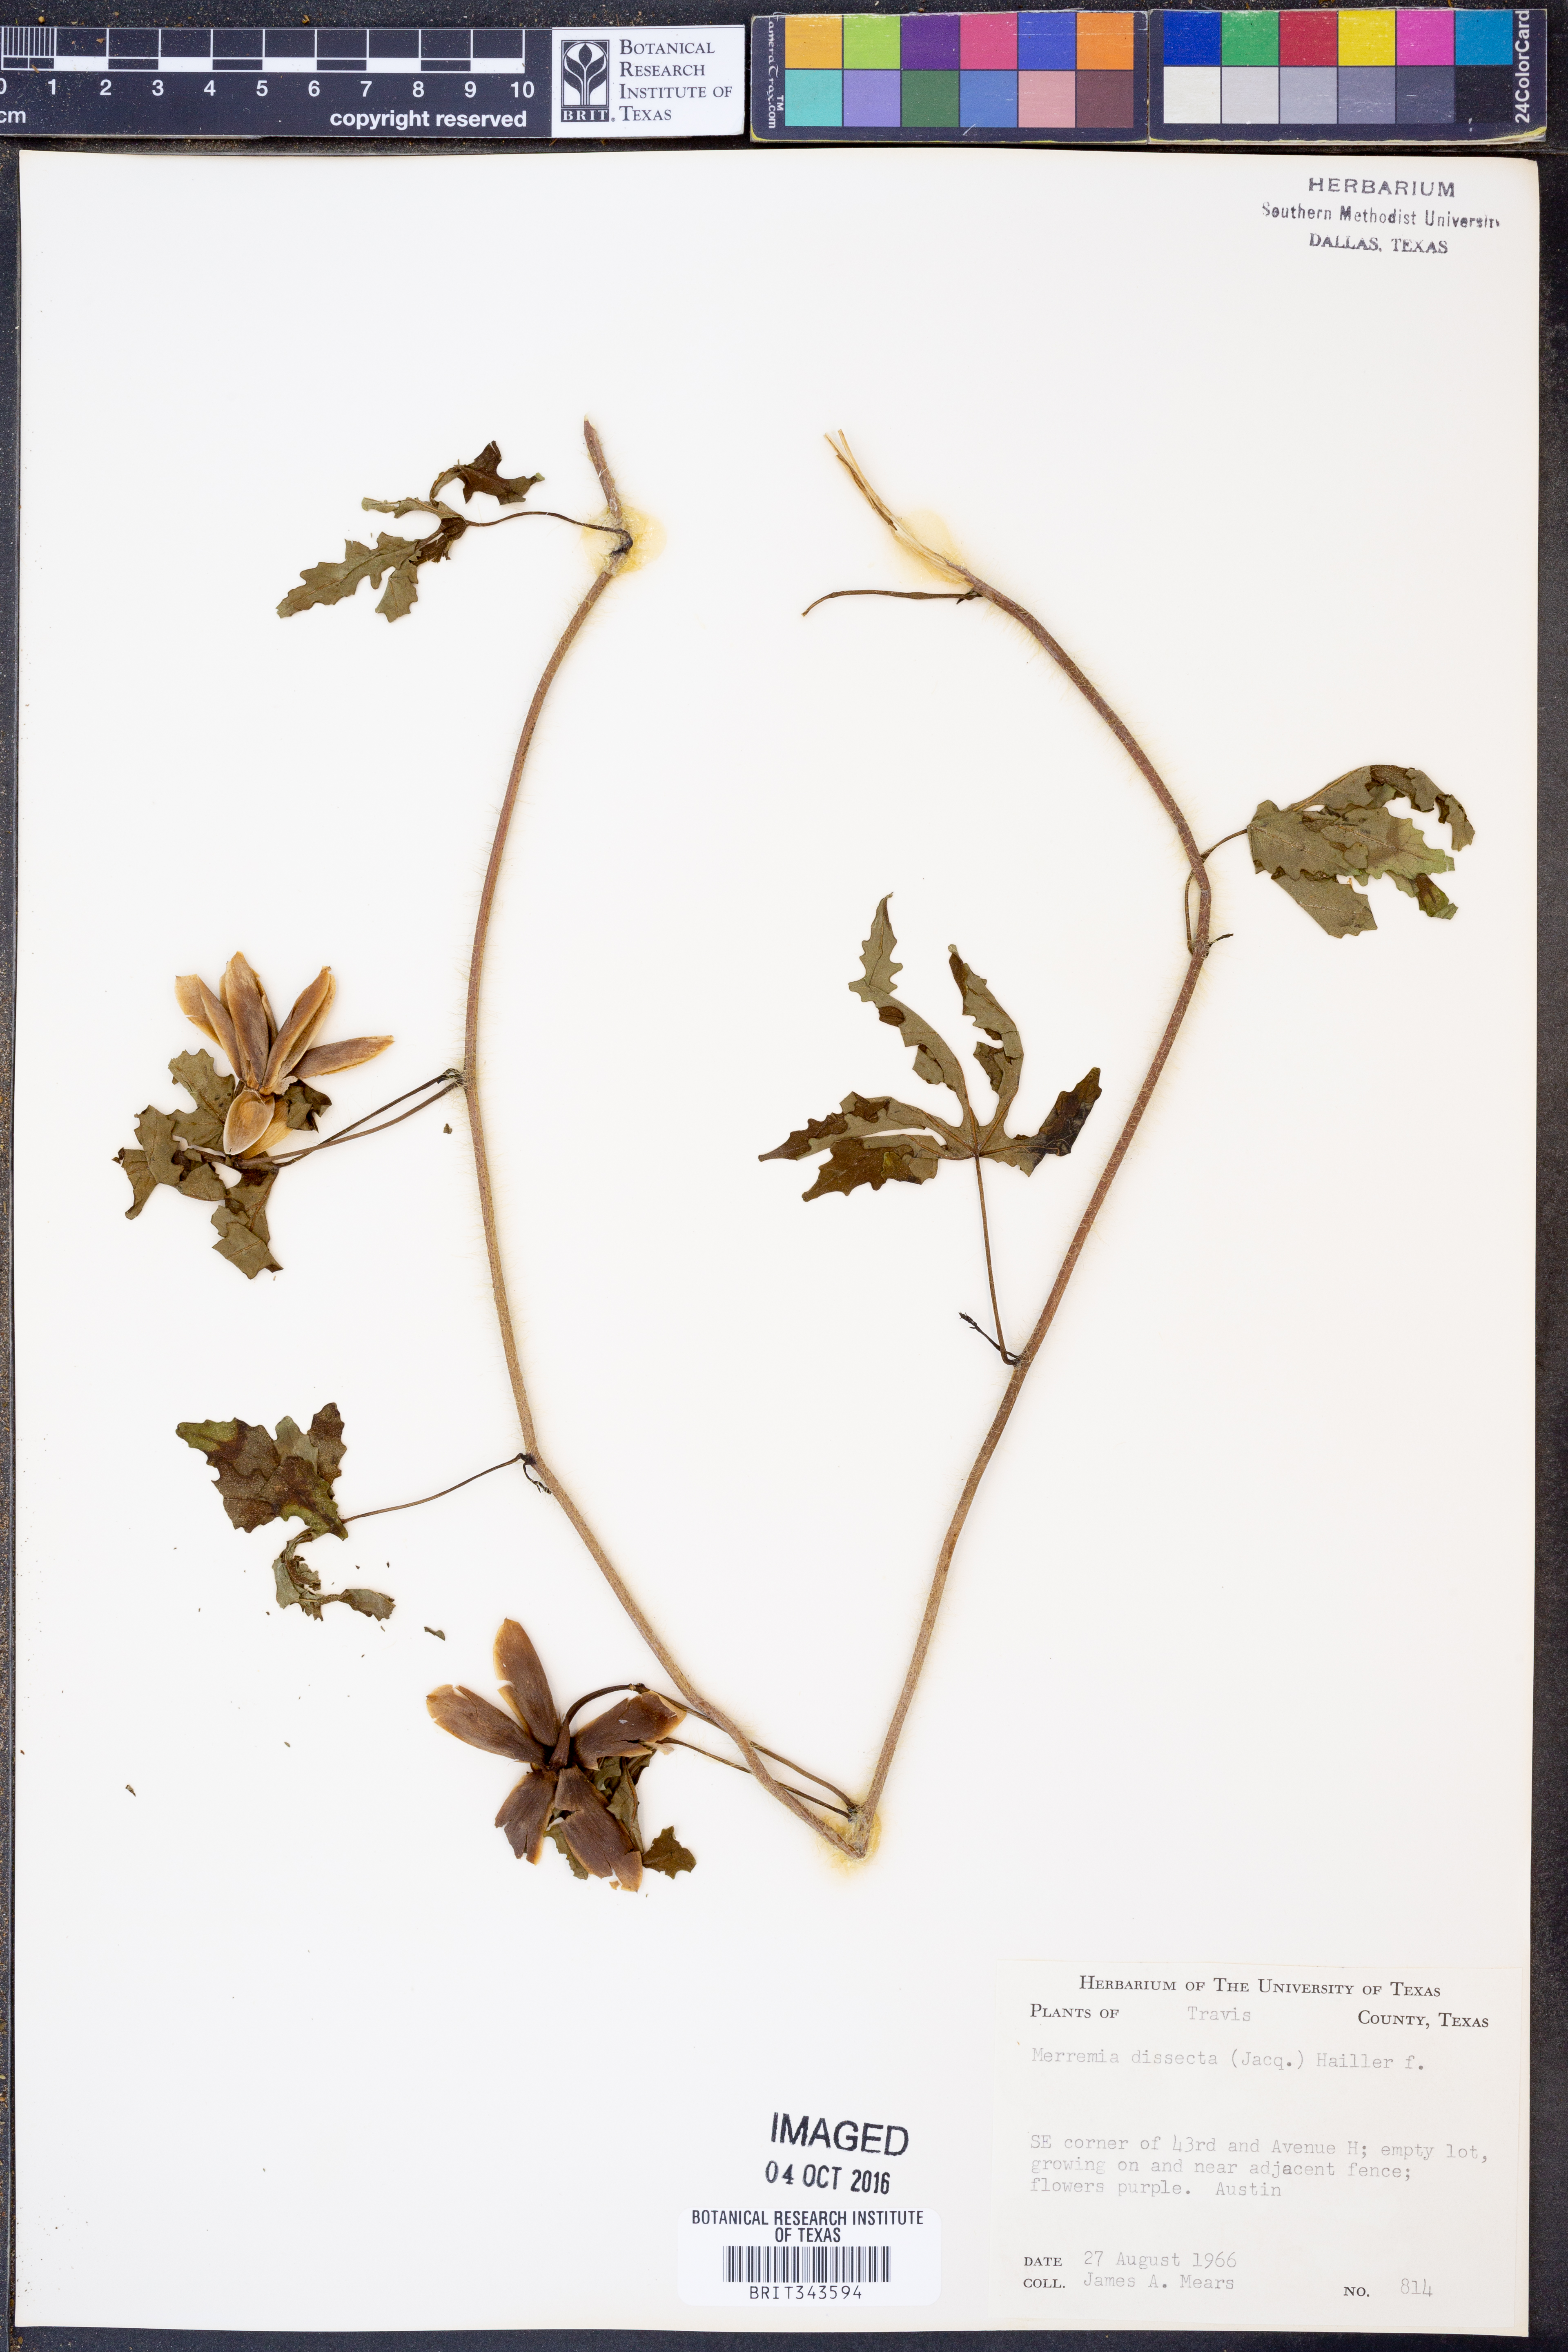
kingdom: Plantae
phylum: Tracheophyta
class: Magnoliopsida
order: Solanales
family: Convolvulaceae
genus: Distimake
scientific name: Distimake dissectus
